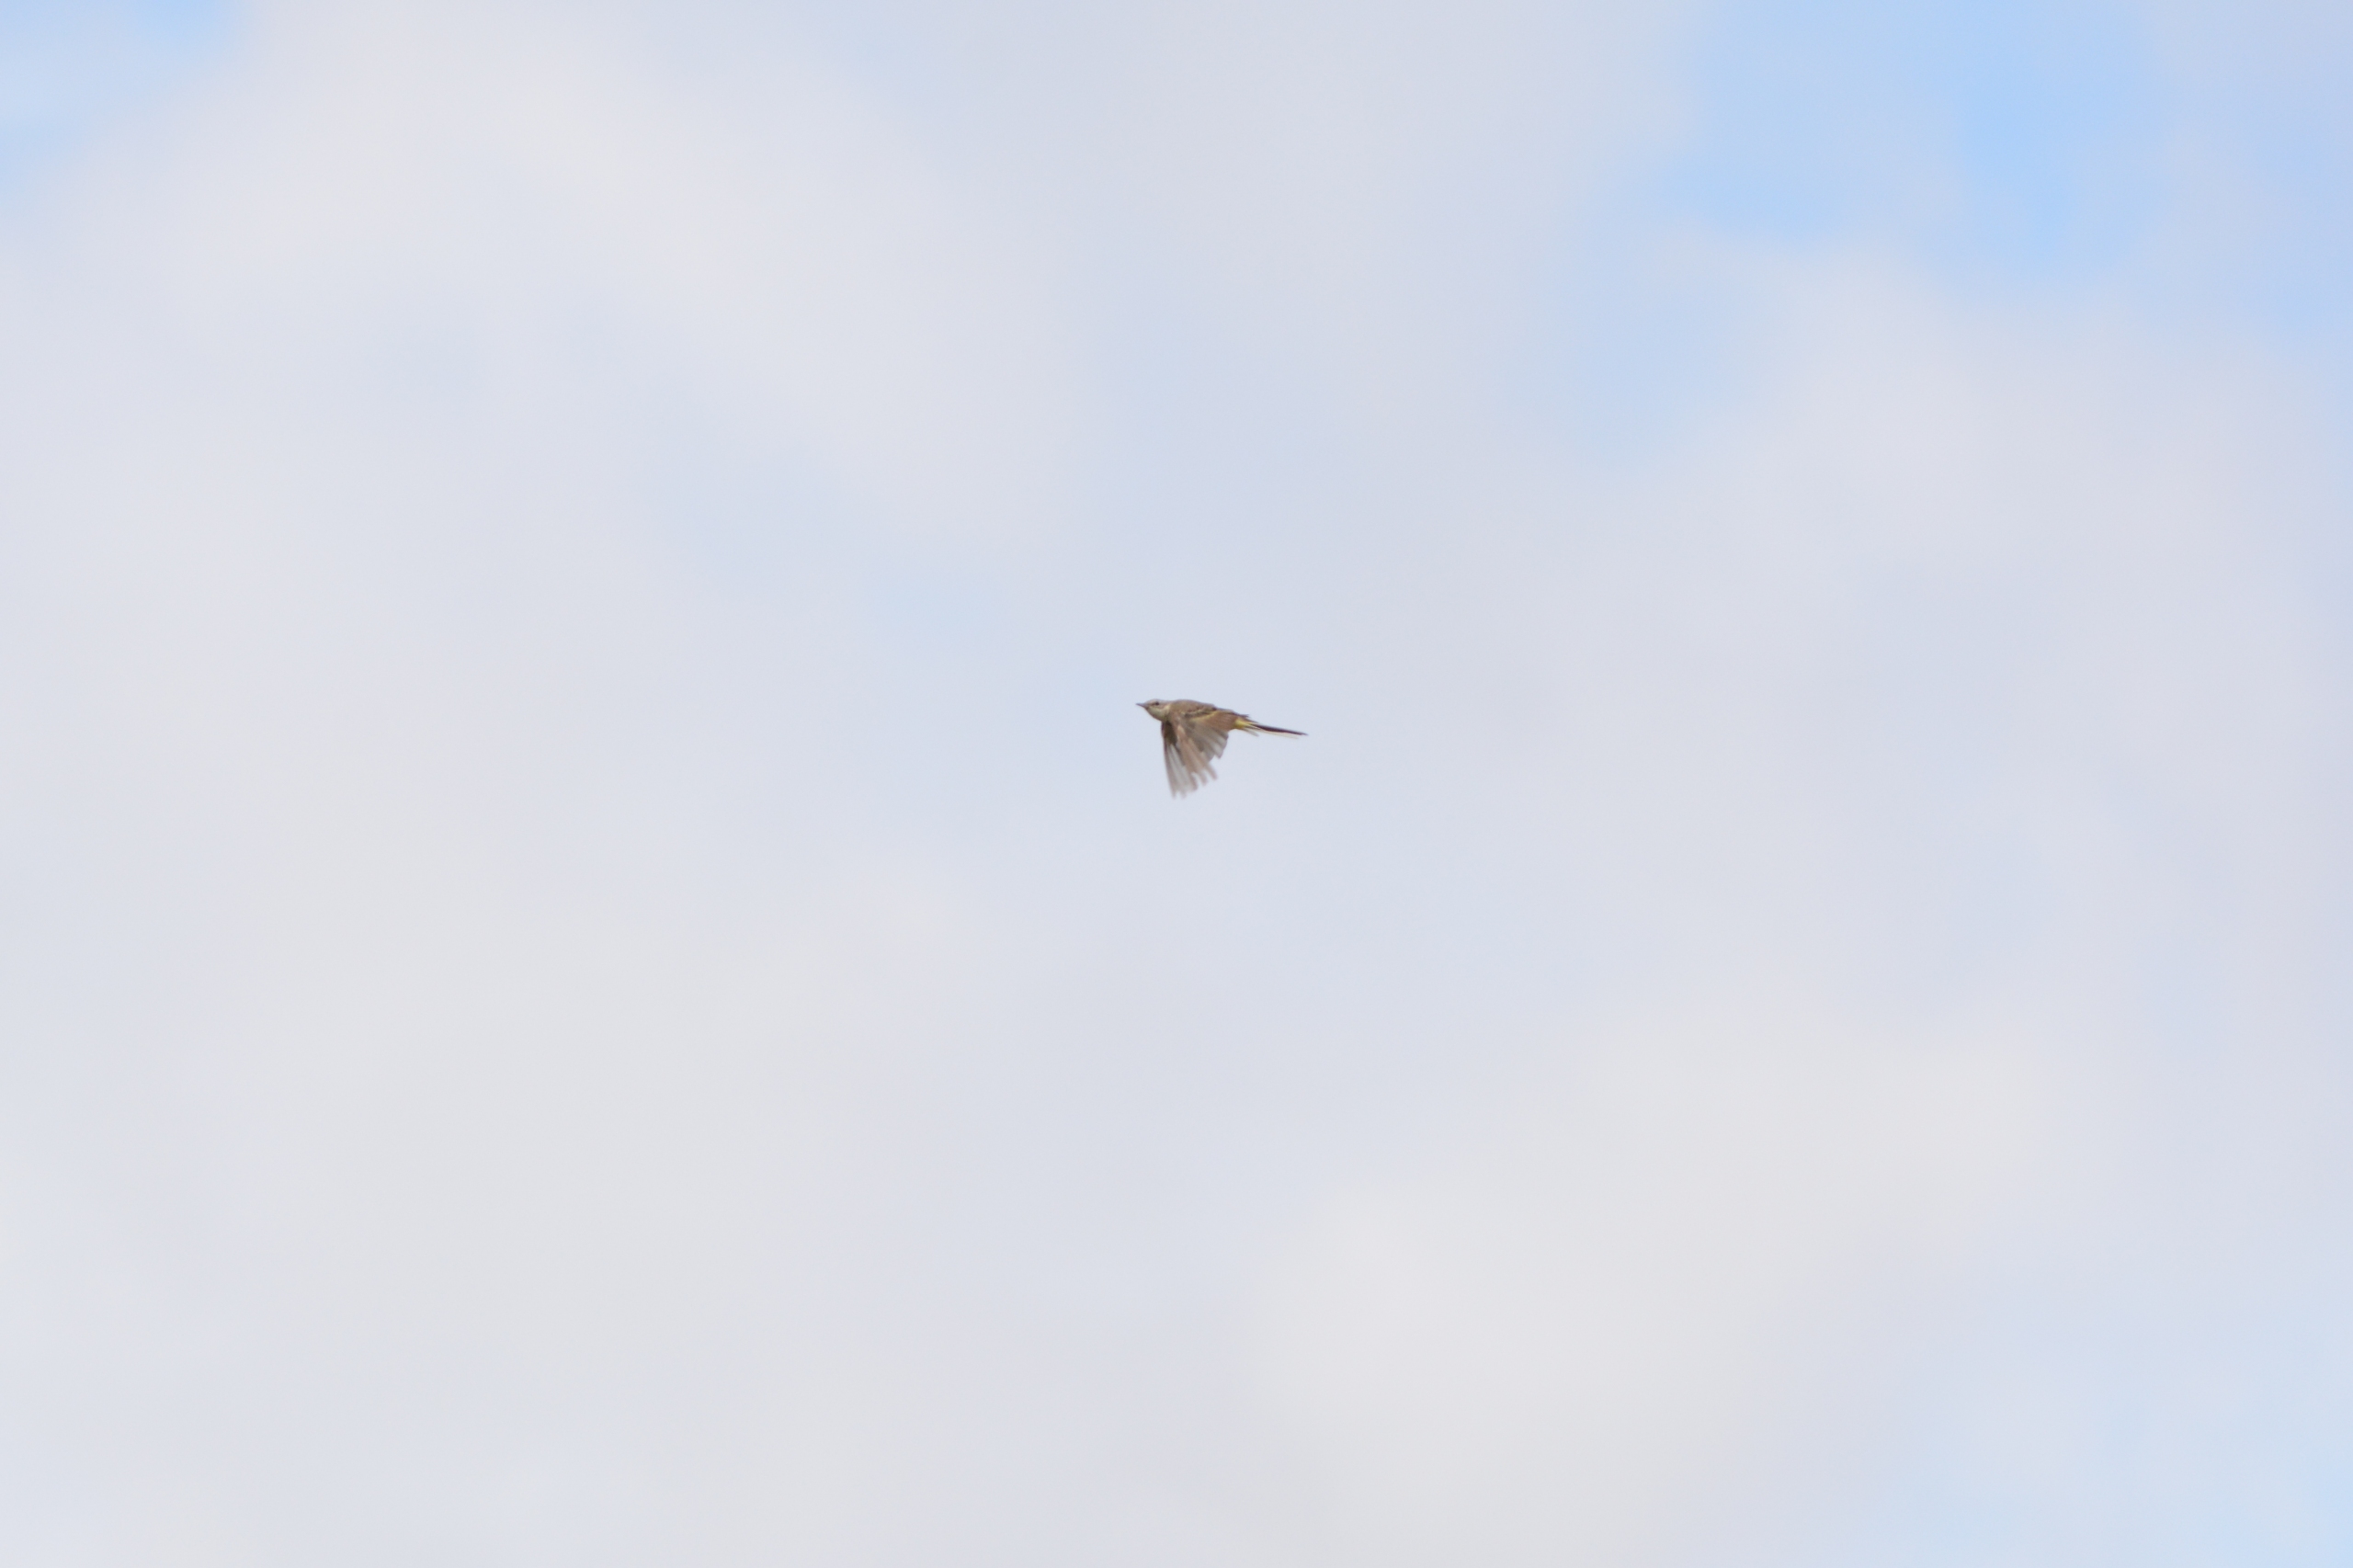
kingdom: Animalia
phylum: Chordata
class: Aves
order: Passeriformes
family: Motacillidae
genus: Motacilla
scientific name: Motacilla flava
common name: Gul vipstjert
